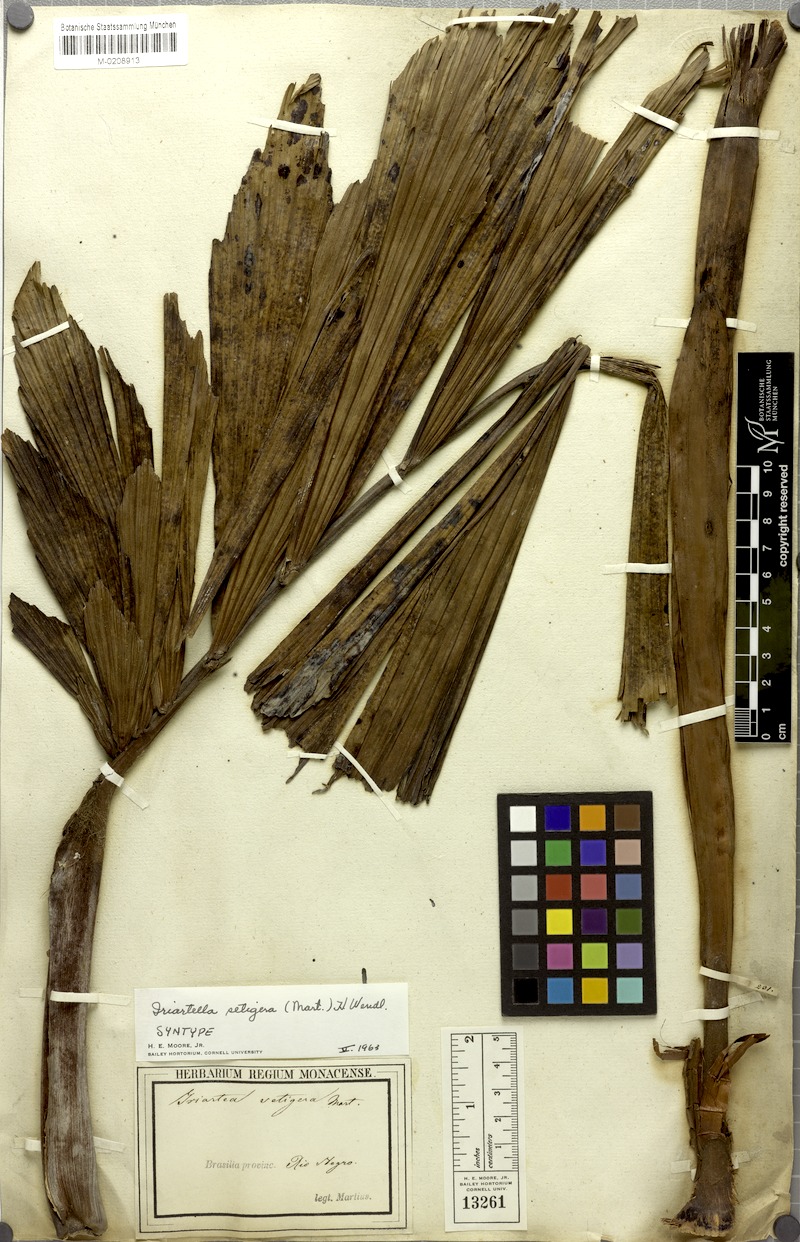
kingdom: Plantae
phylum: Tracheophyta
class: Liliopsida
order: Arecales
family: Arecaceae
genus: Iriartella
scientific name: Iriartella setigera
